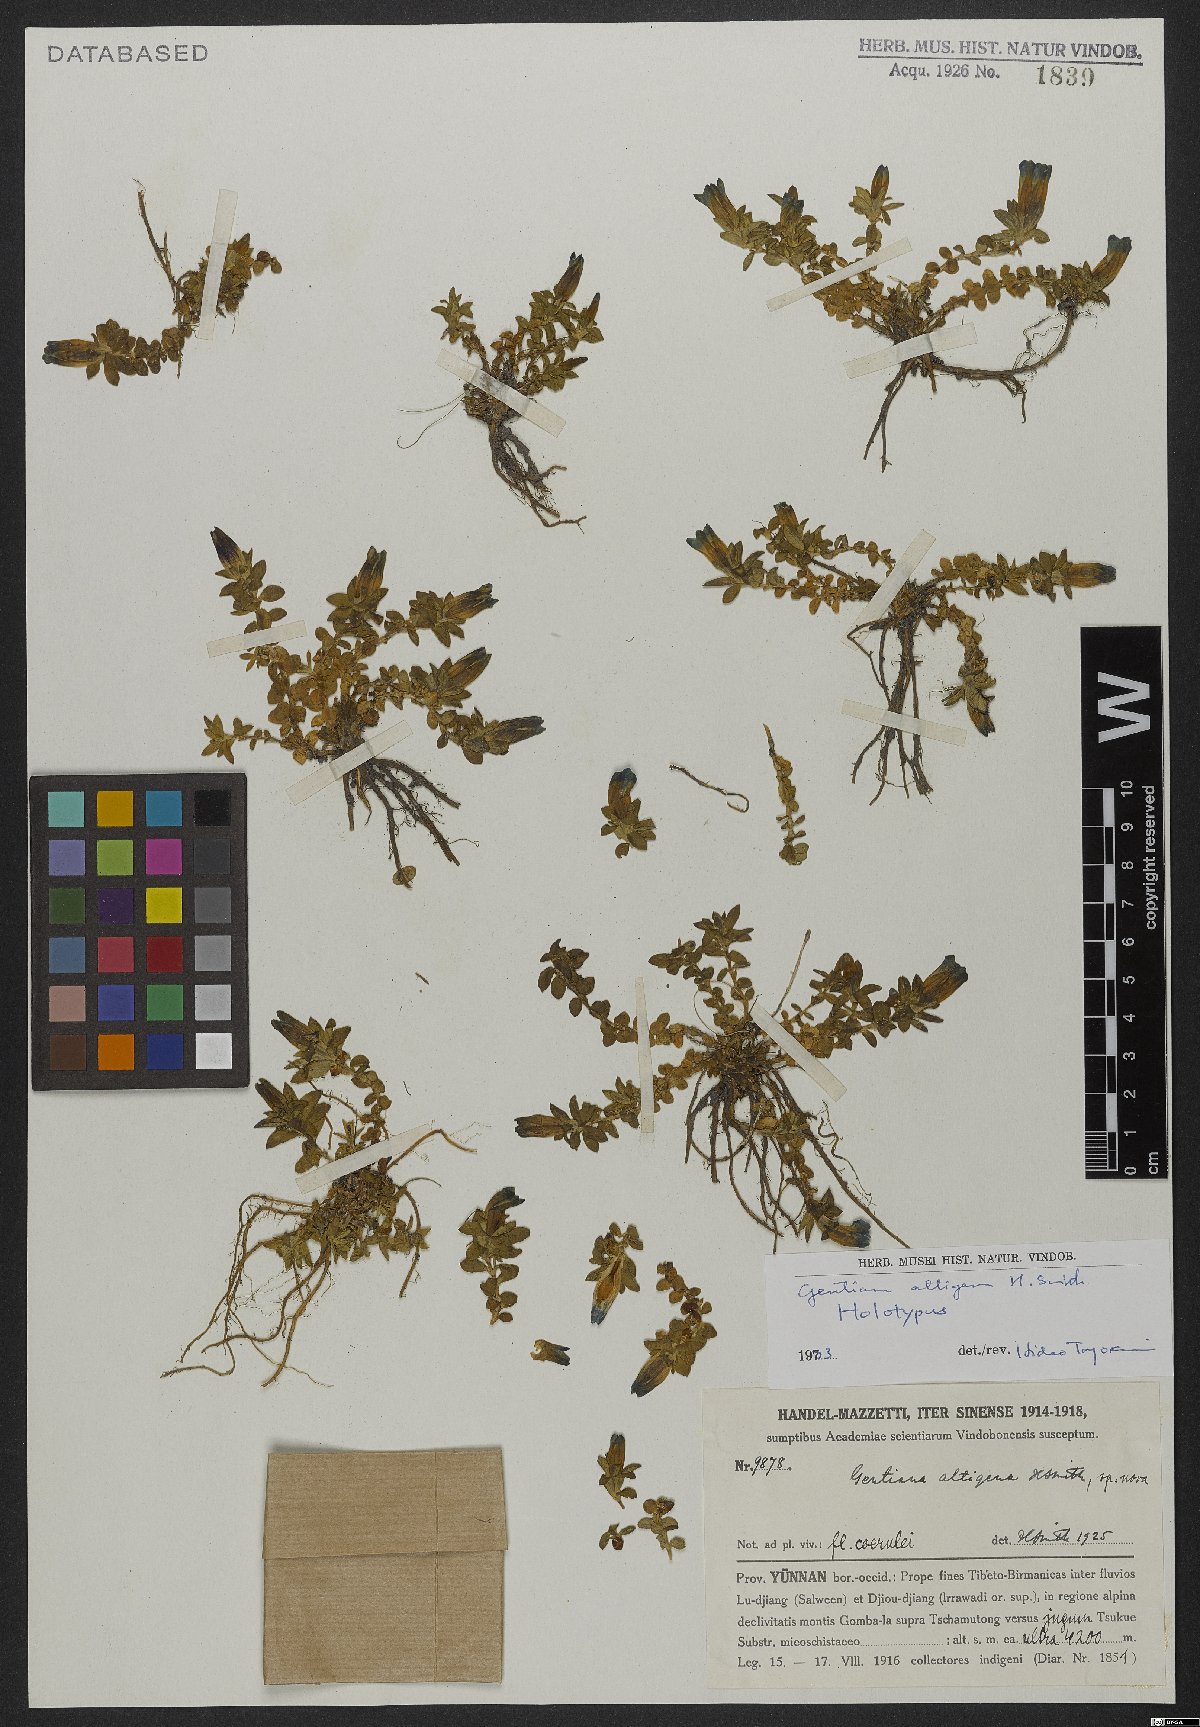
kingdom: Plantae
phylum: Tracheophyta
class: Magnoliopsida
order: Gentianales
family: Gentianaceae
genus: Gentiana
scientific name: Gentiana altigena
